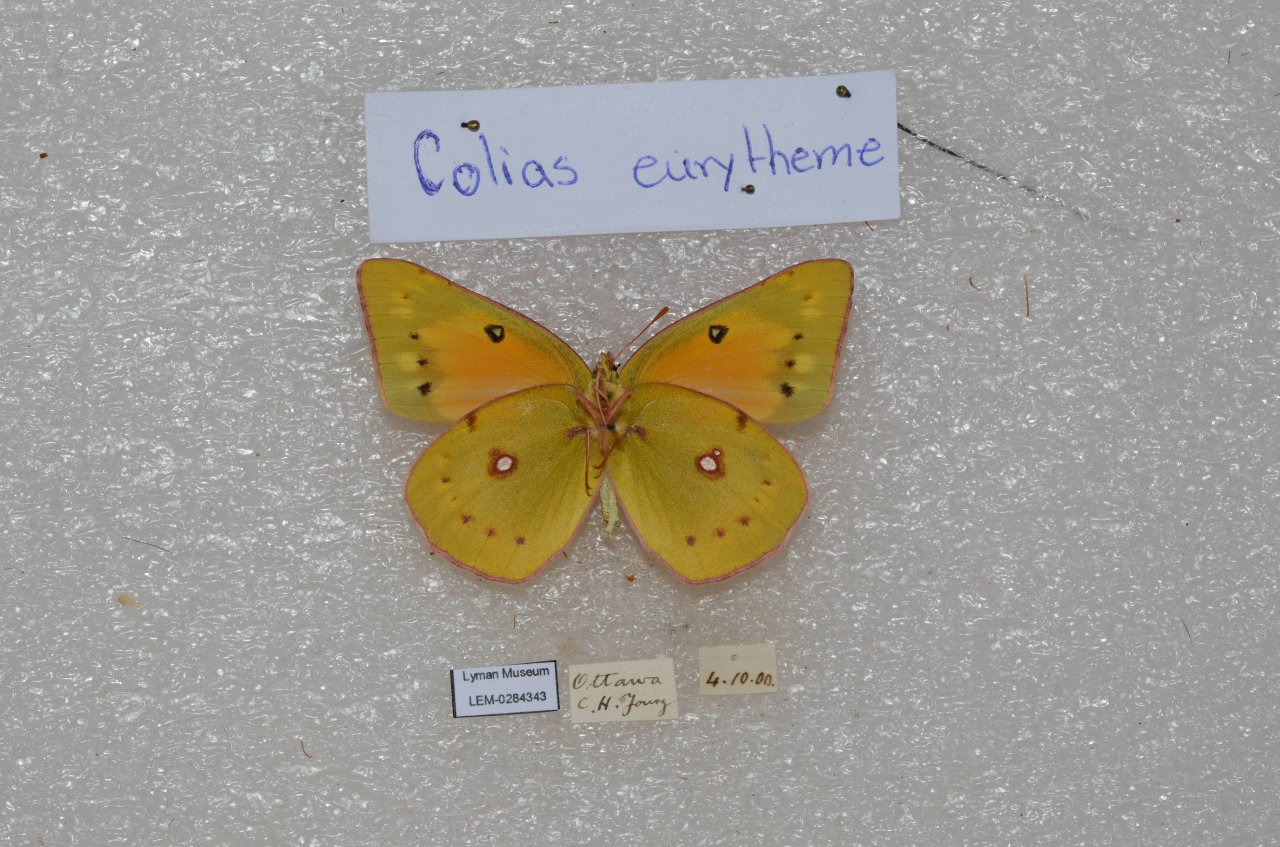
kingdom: Animalia
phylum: Arthropoda
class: Insecta
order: Lepidoptera
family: Pieridae
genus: Colias
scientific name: Colias eurytheme
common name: Orange Sulphur
